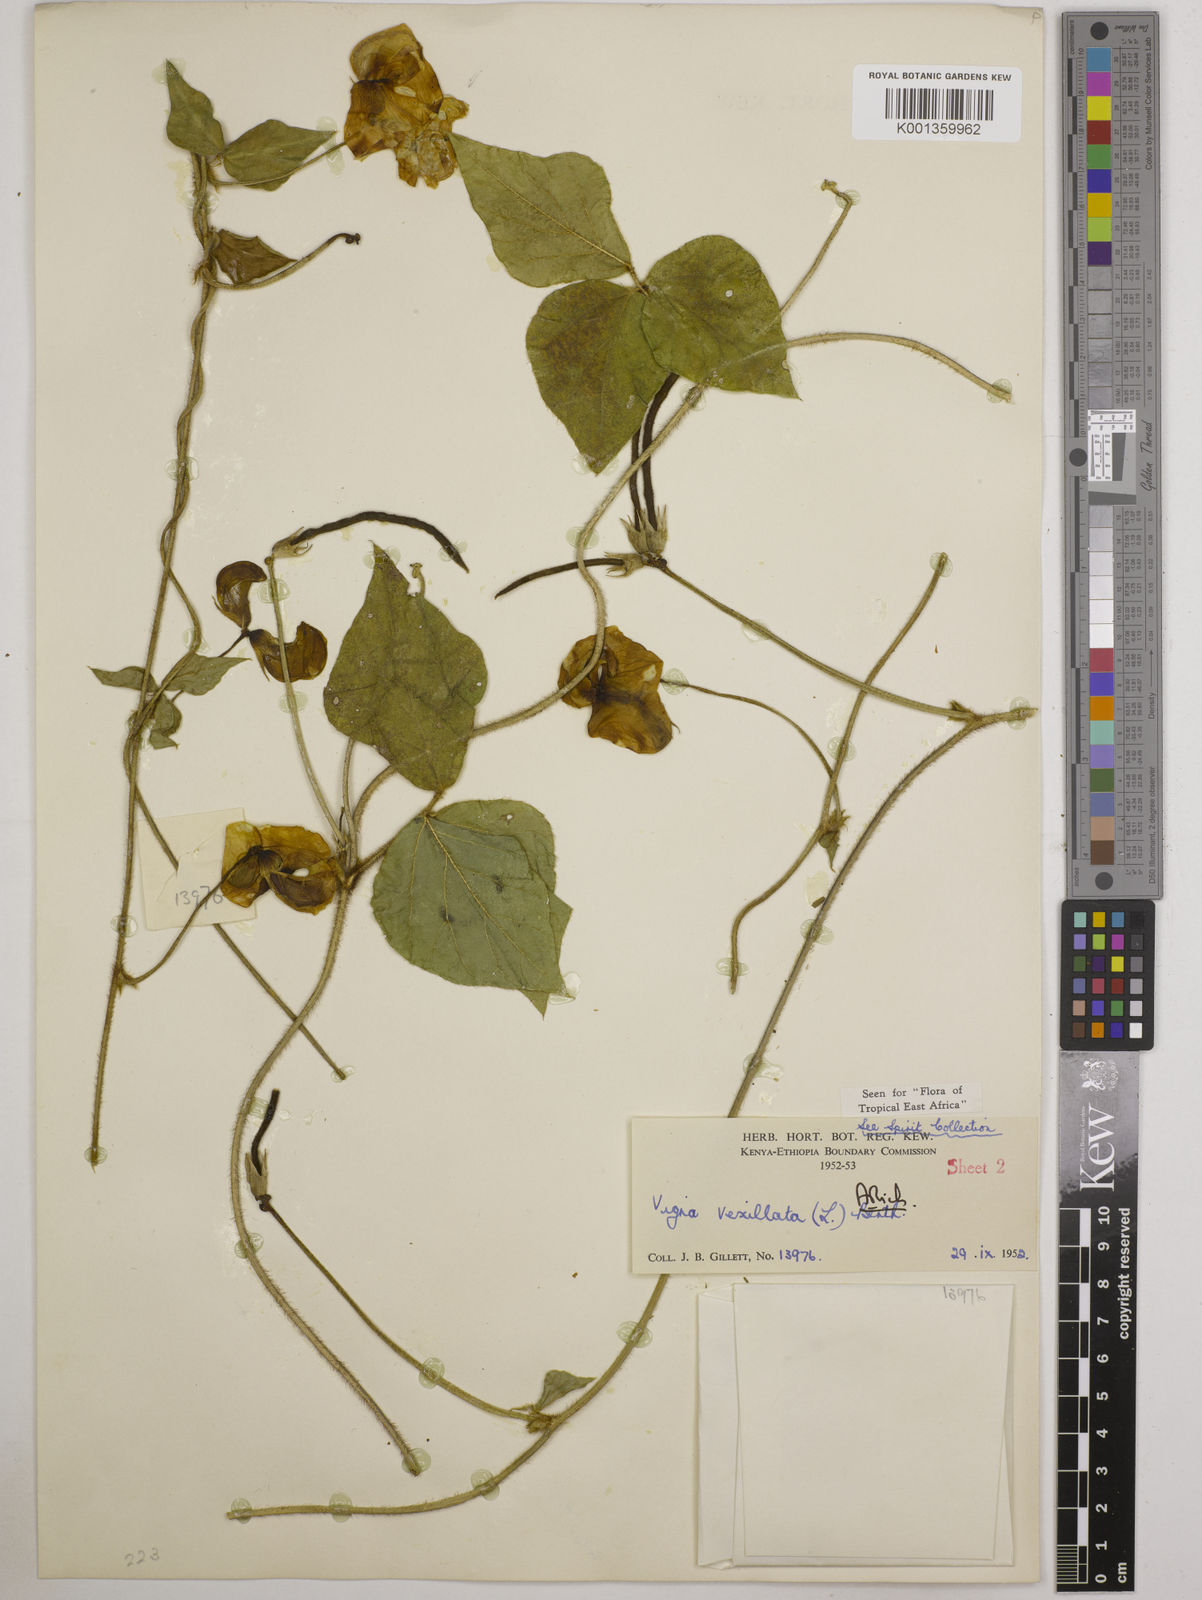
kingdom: Plantae
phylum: Tracheophyta
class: Magnoliopsida
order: Fabales
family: Fabaceae
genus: Vigna
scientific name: Vigna vexillata
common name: Zombi pea
